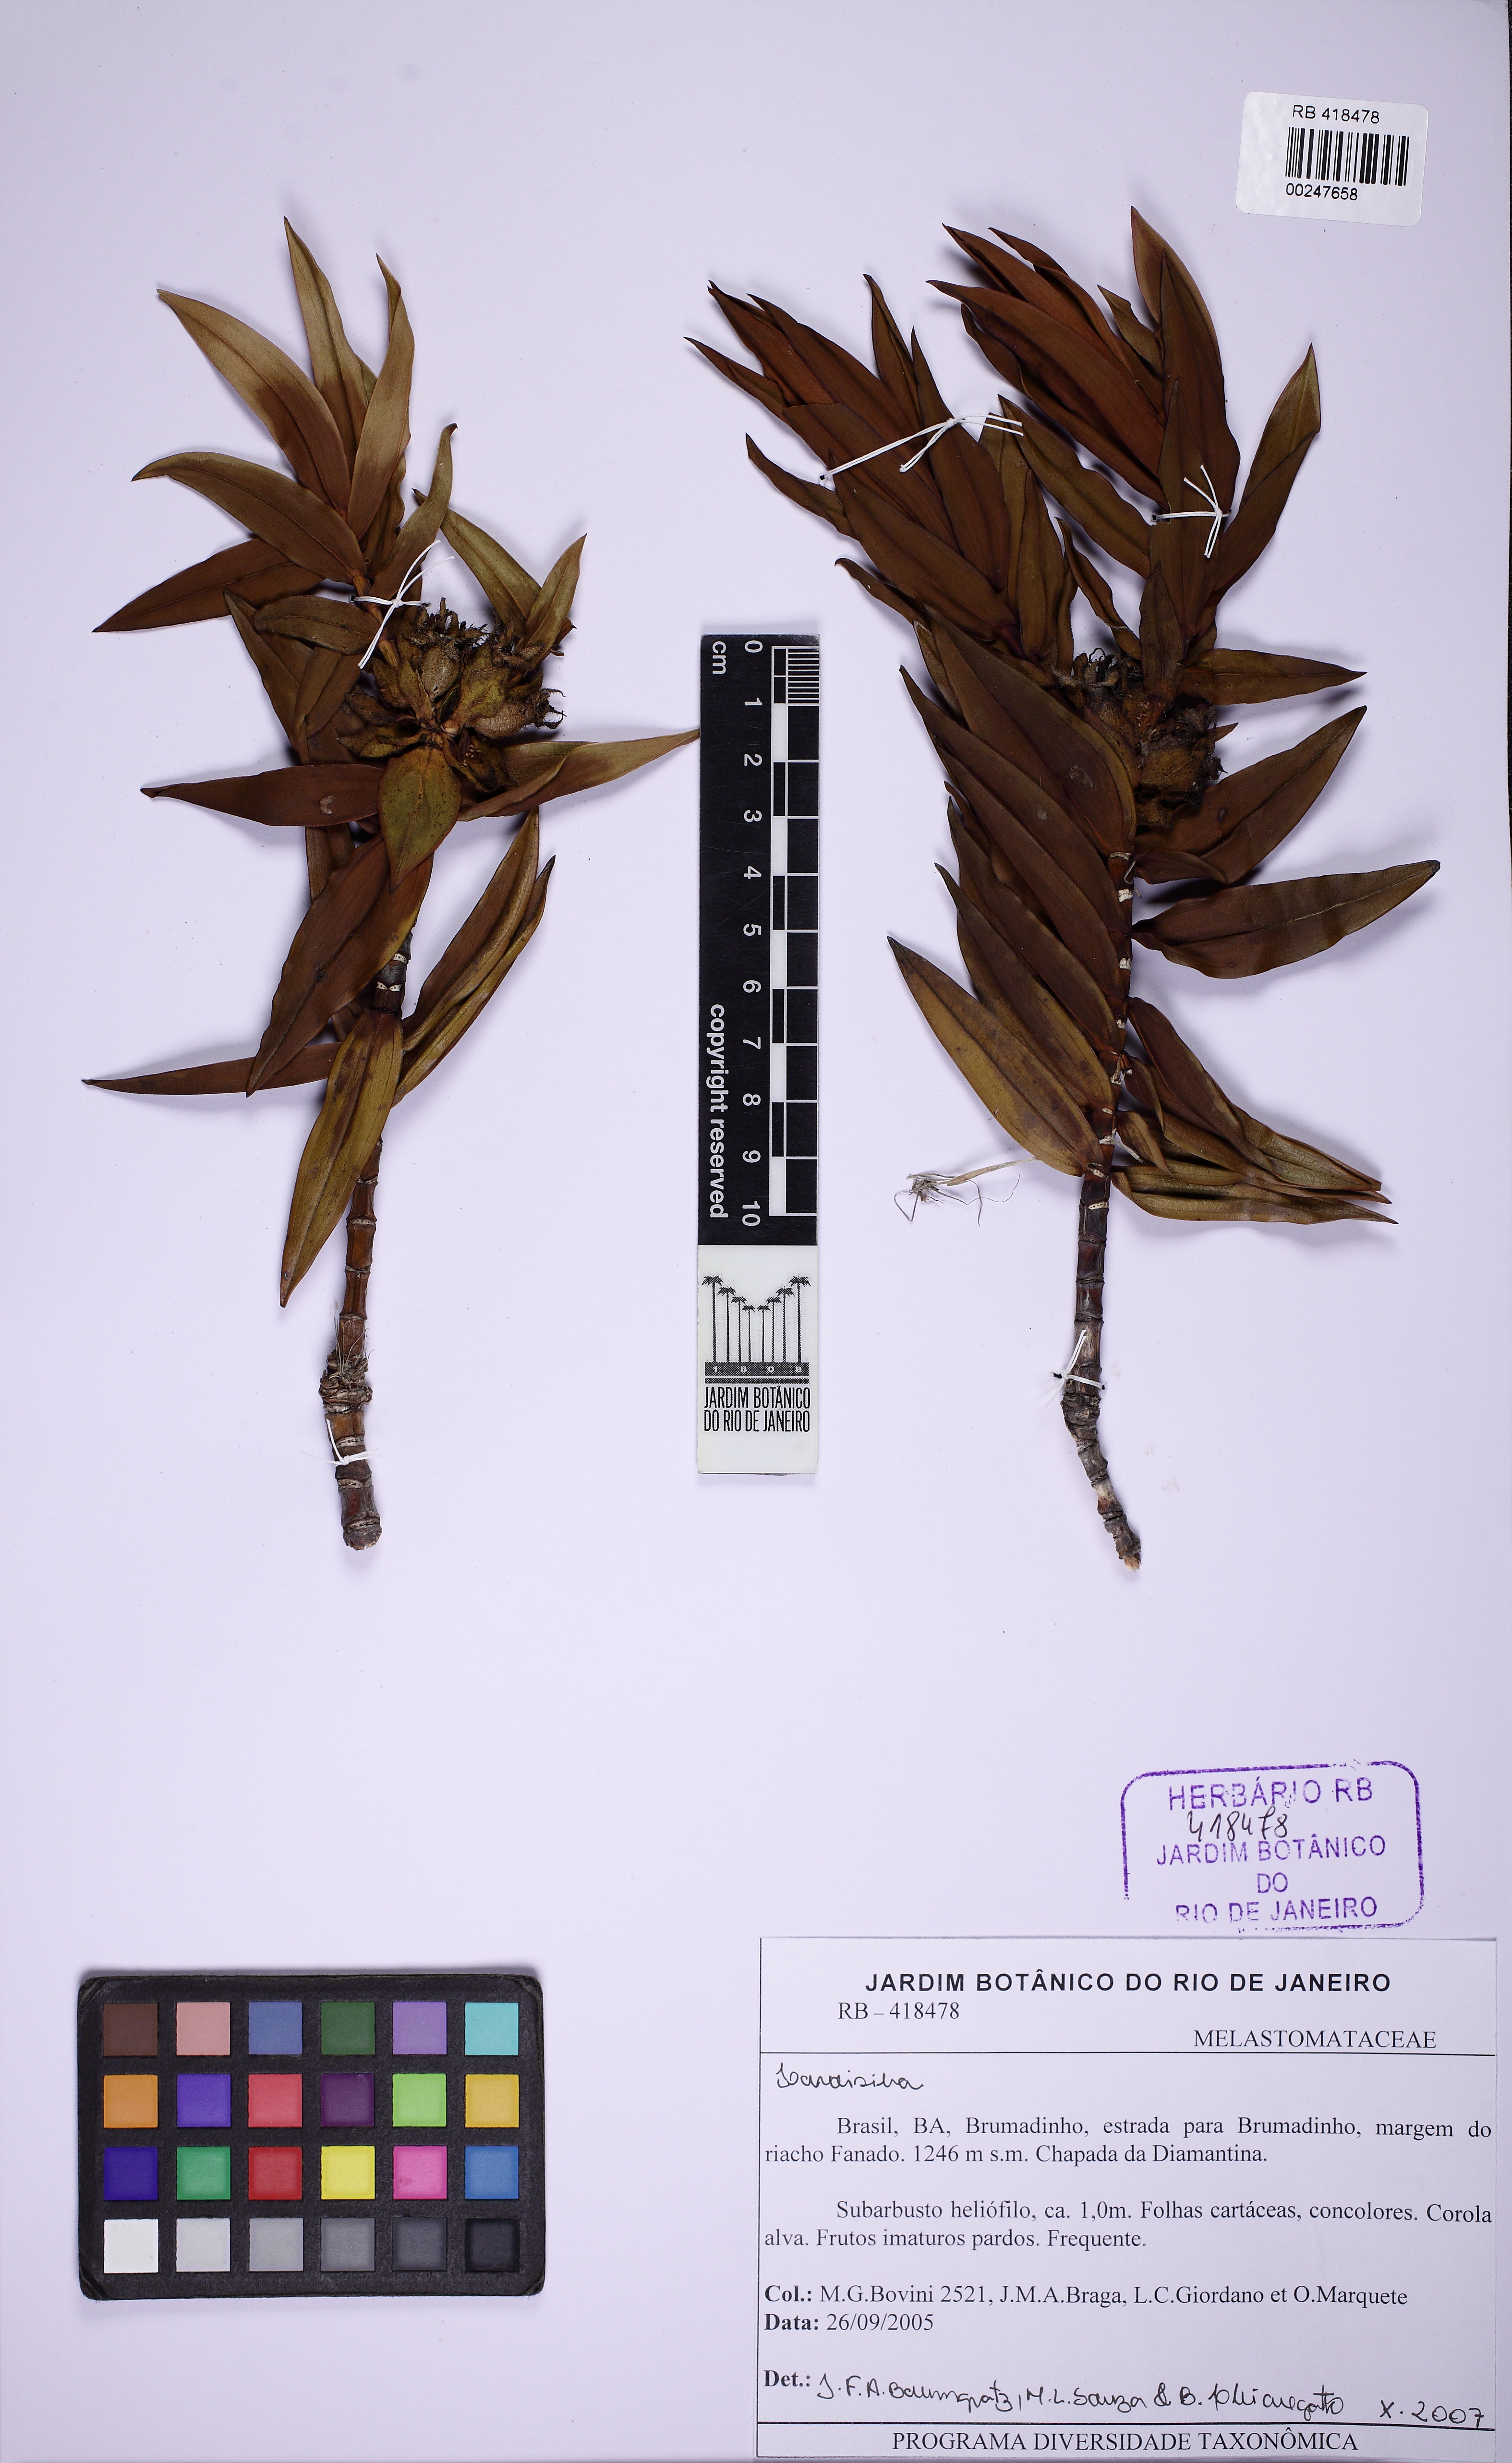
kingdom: Plantae
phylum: Tracheophyta
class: Magnoliopsida
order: Myrtales
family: Melastomataceae
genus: Microlicia
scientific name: Microlicia
